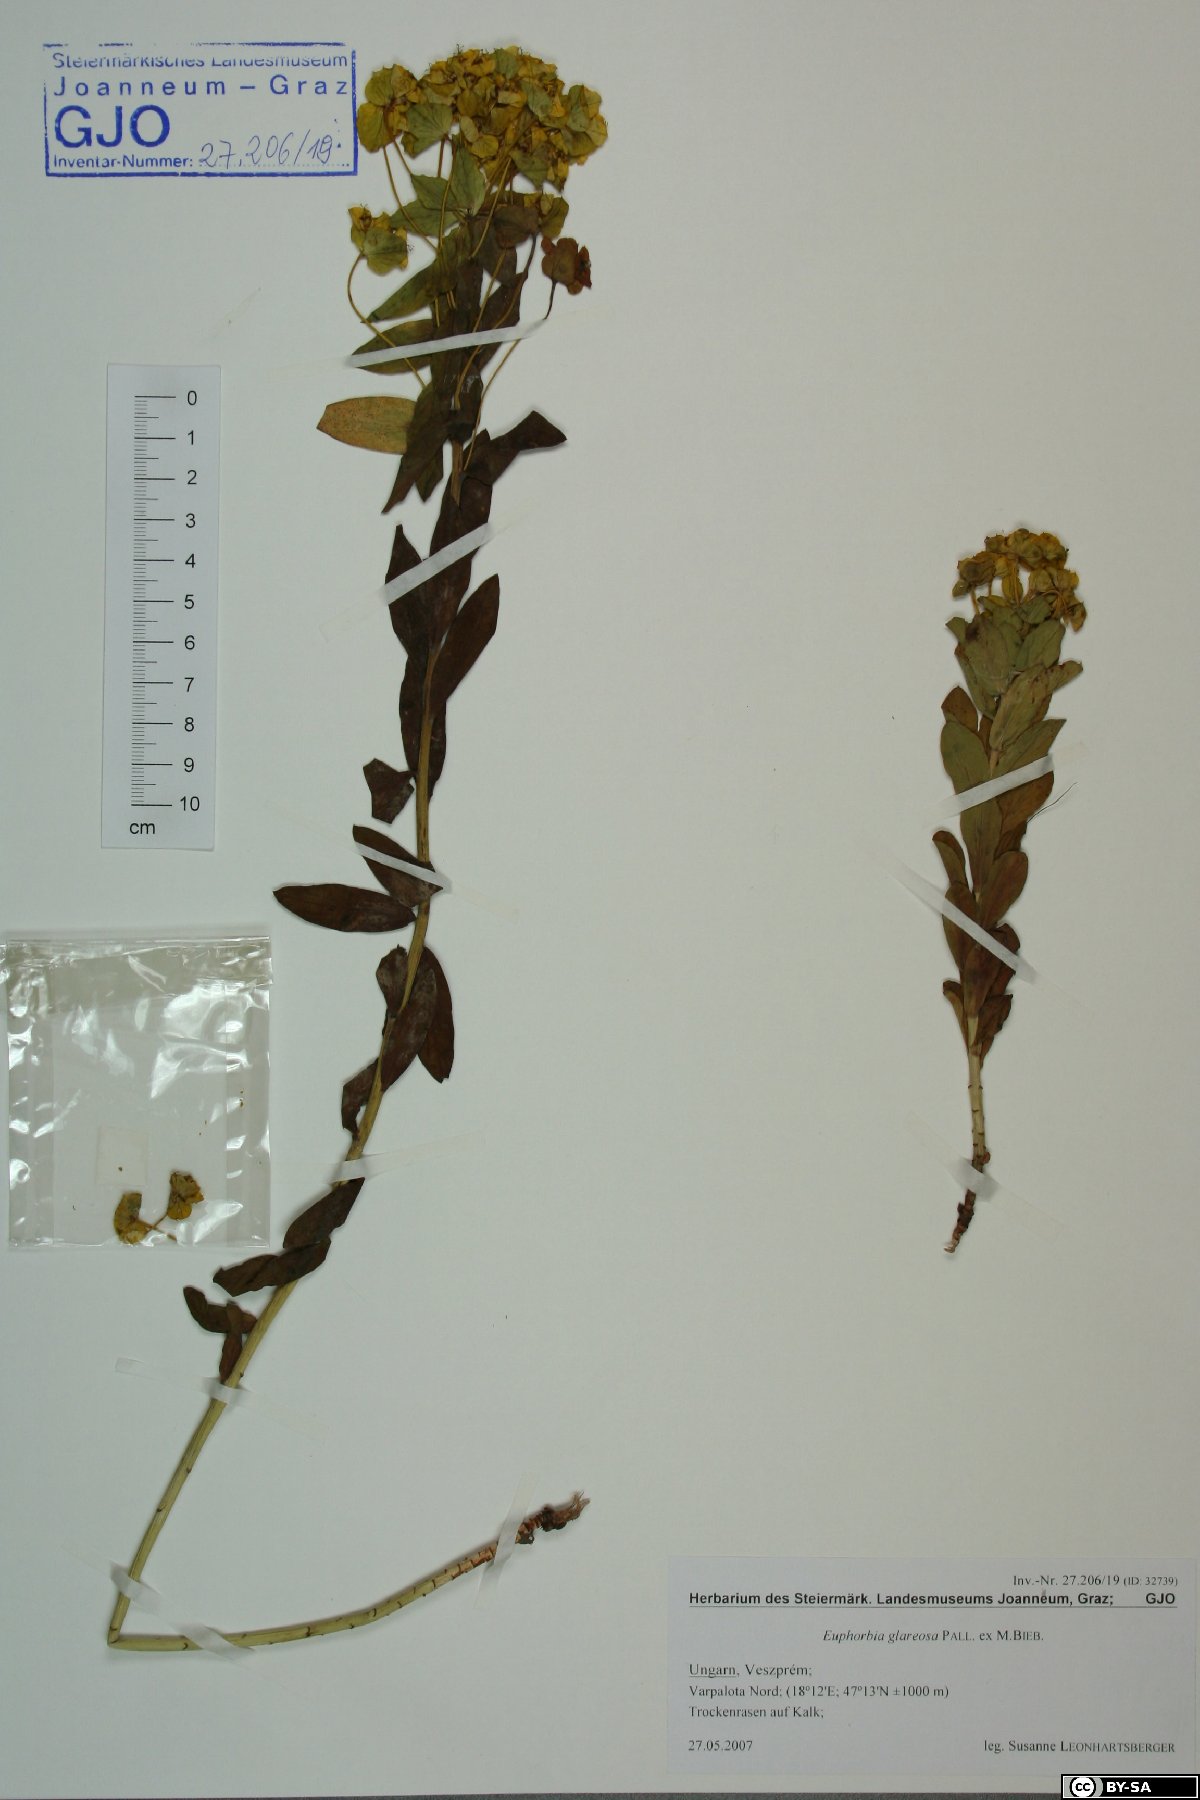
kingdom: Plantae
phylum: Tracheophyta
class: Magnoliopsida
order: Malpighiales
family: Euphorbiaceae
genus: Euphorbia
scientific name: Euphorbia glareosa
